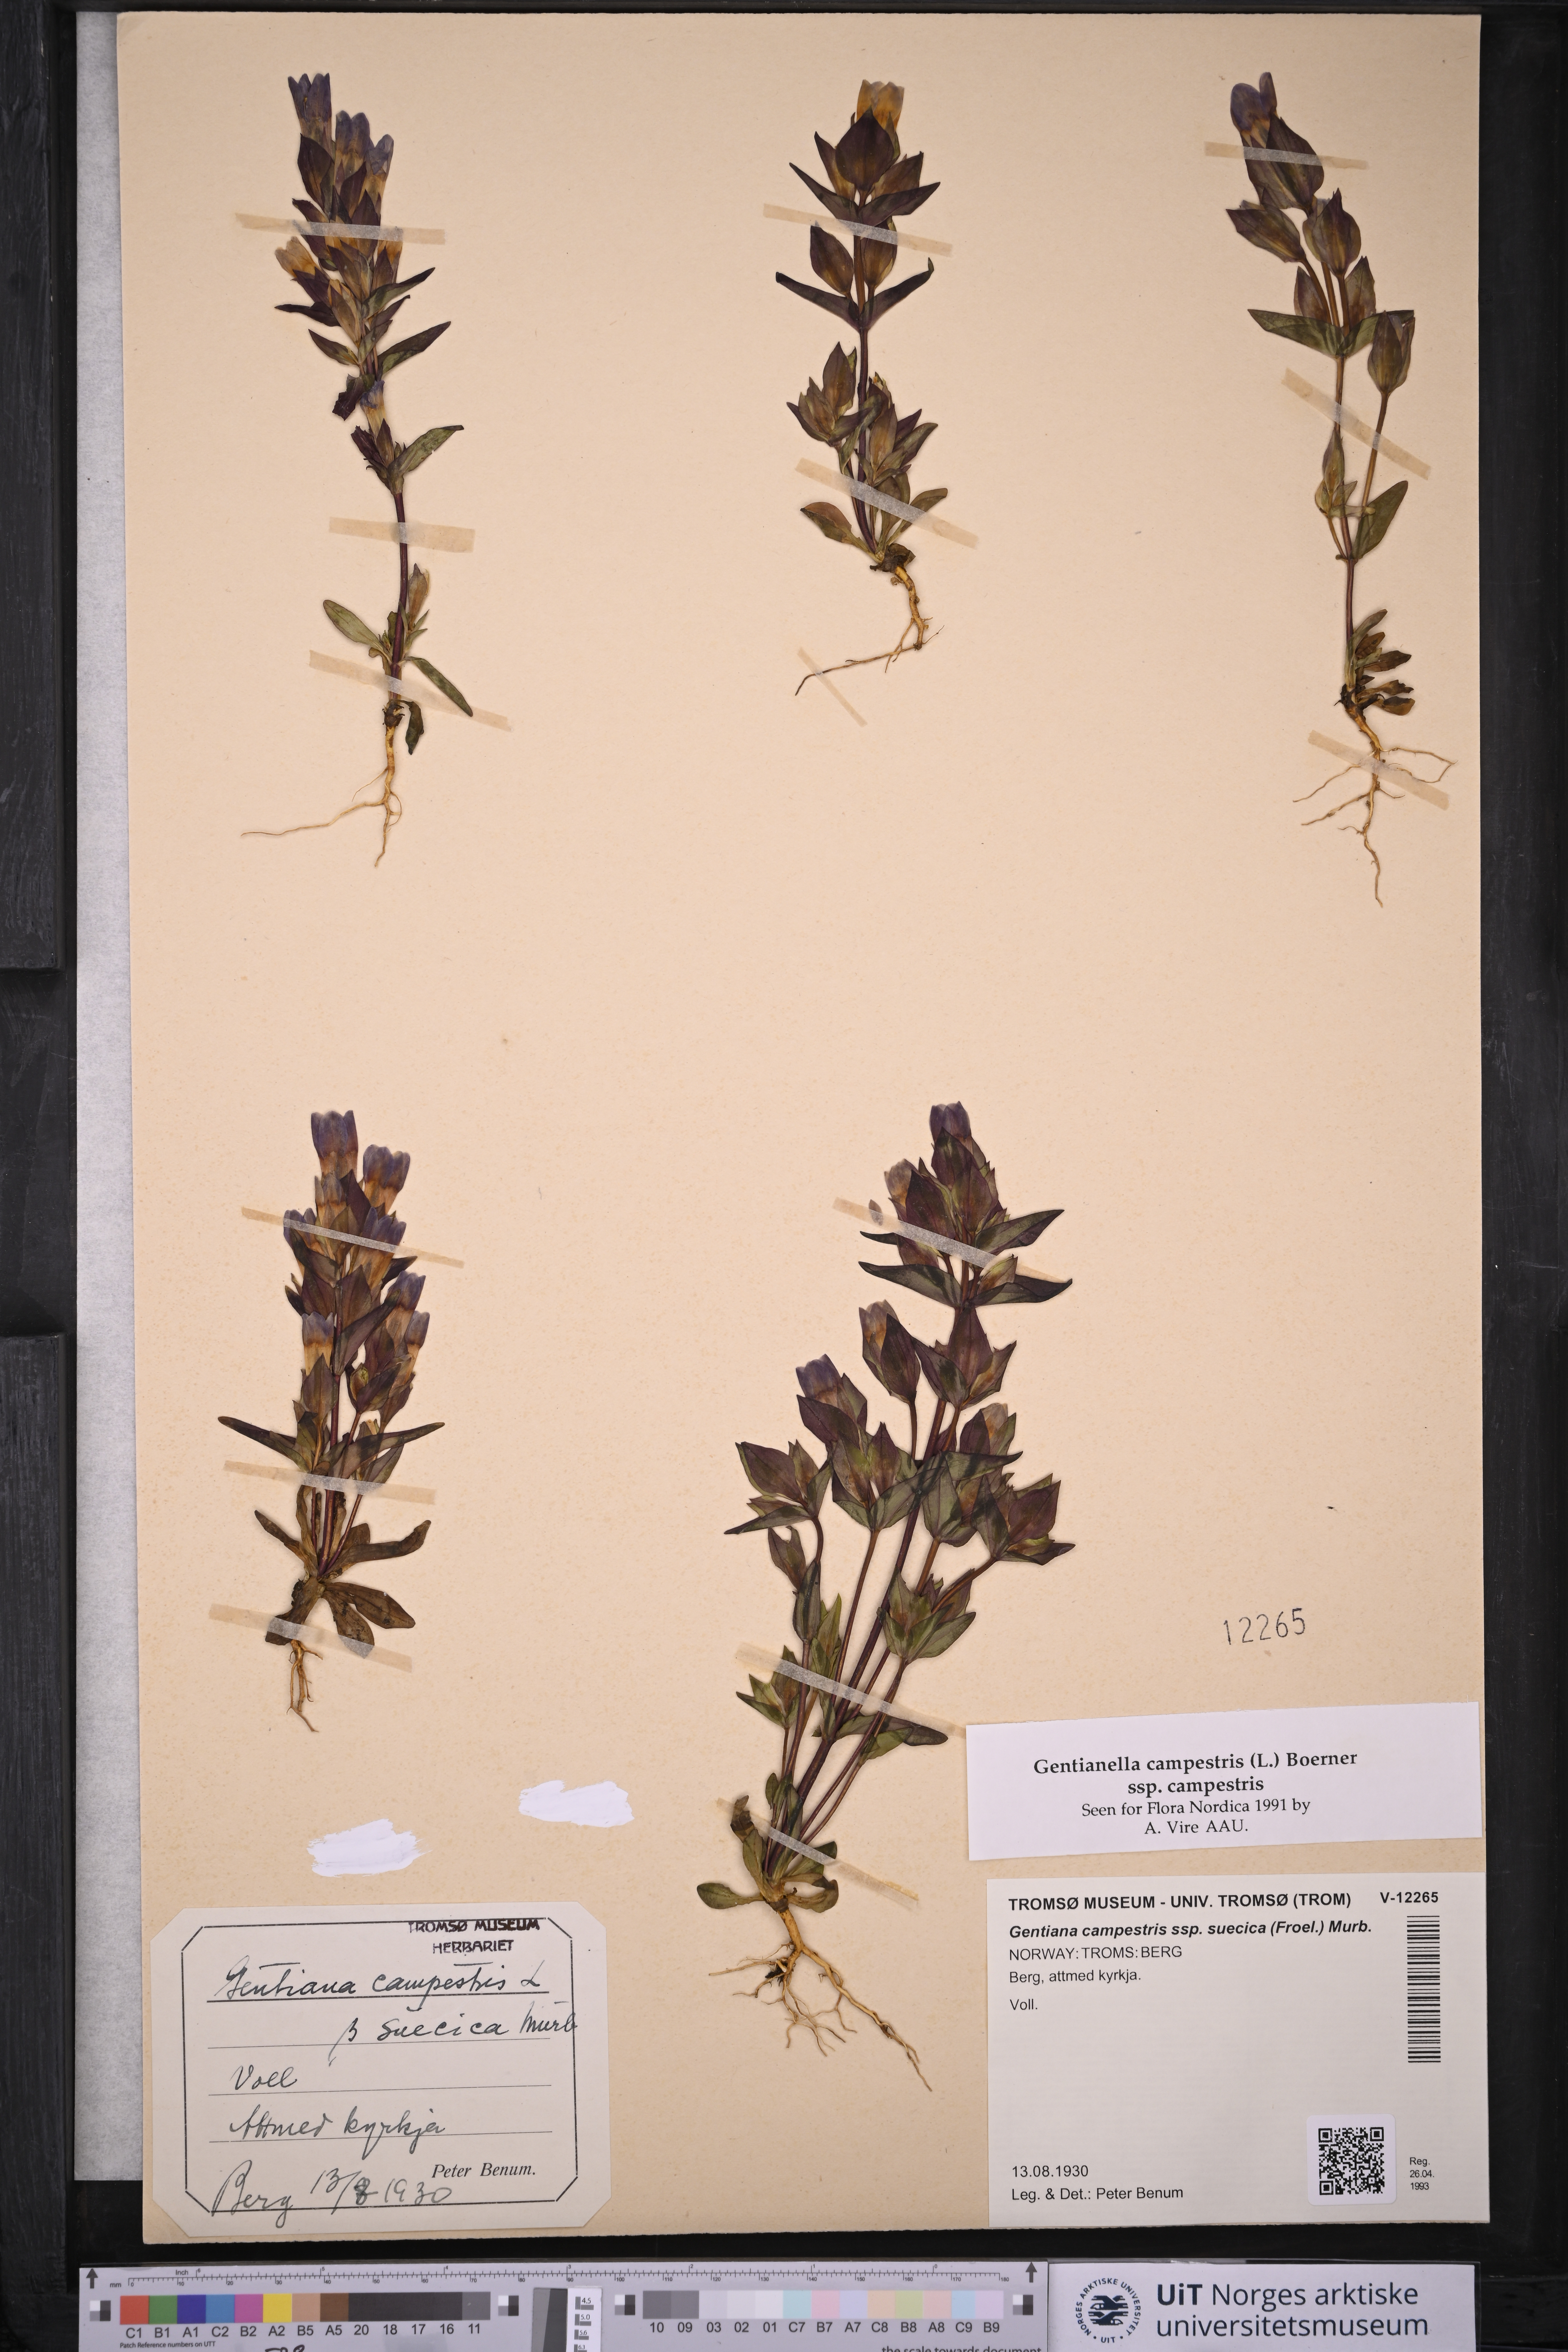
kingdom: Plantae
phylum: Tracheophyta
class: Magnoliopsida
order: Gentianales
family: Gentianaceae
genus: Gentianella
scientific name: Gentianella campestris
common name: Field gentian
